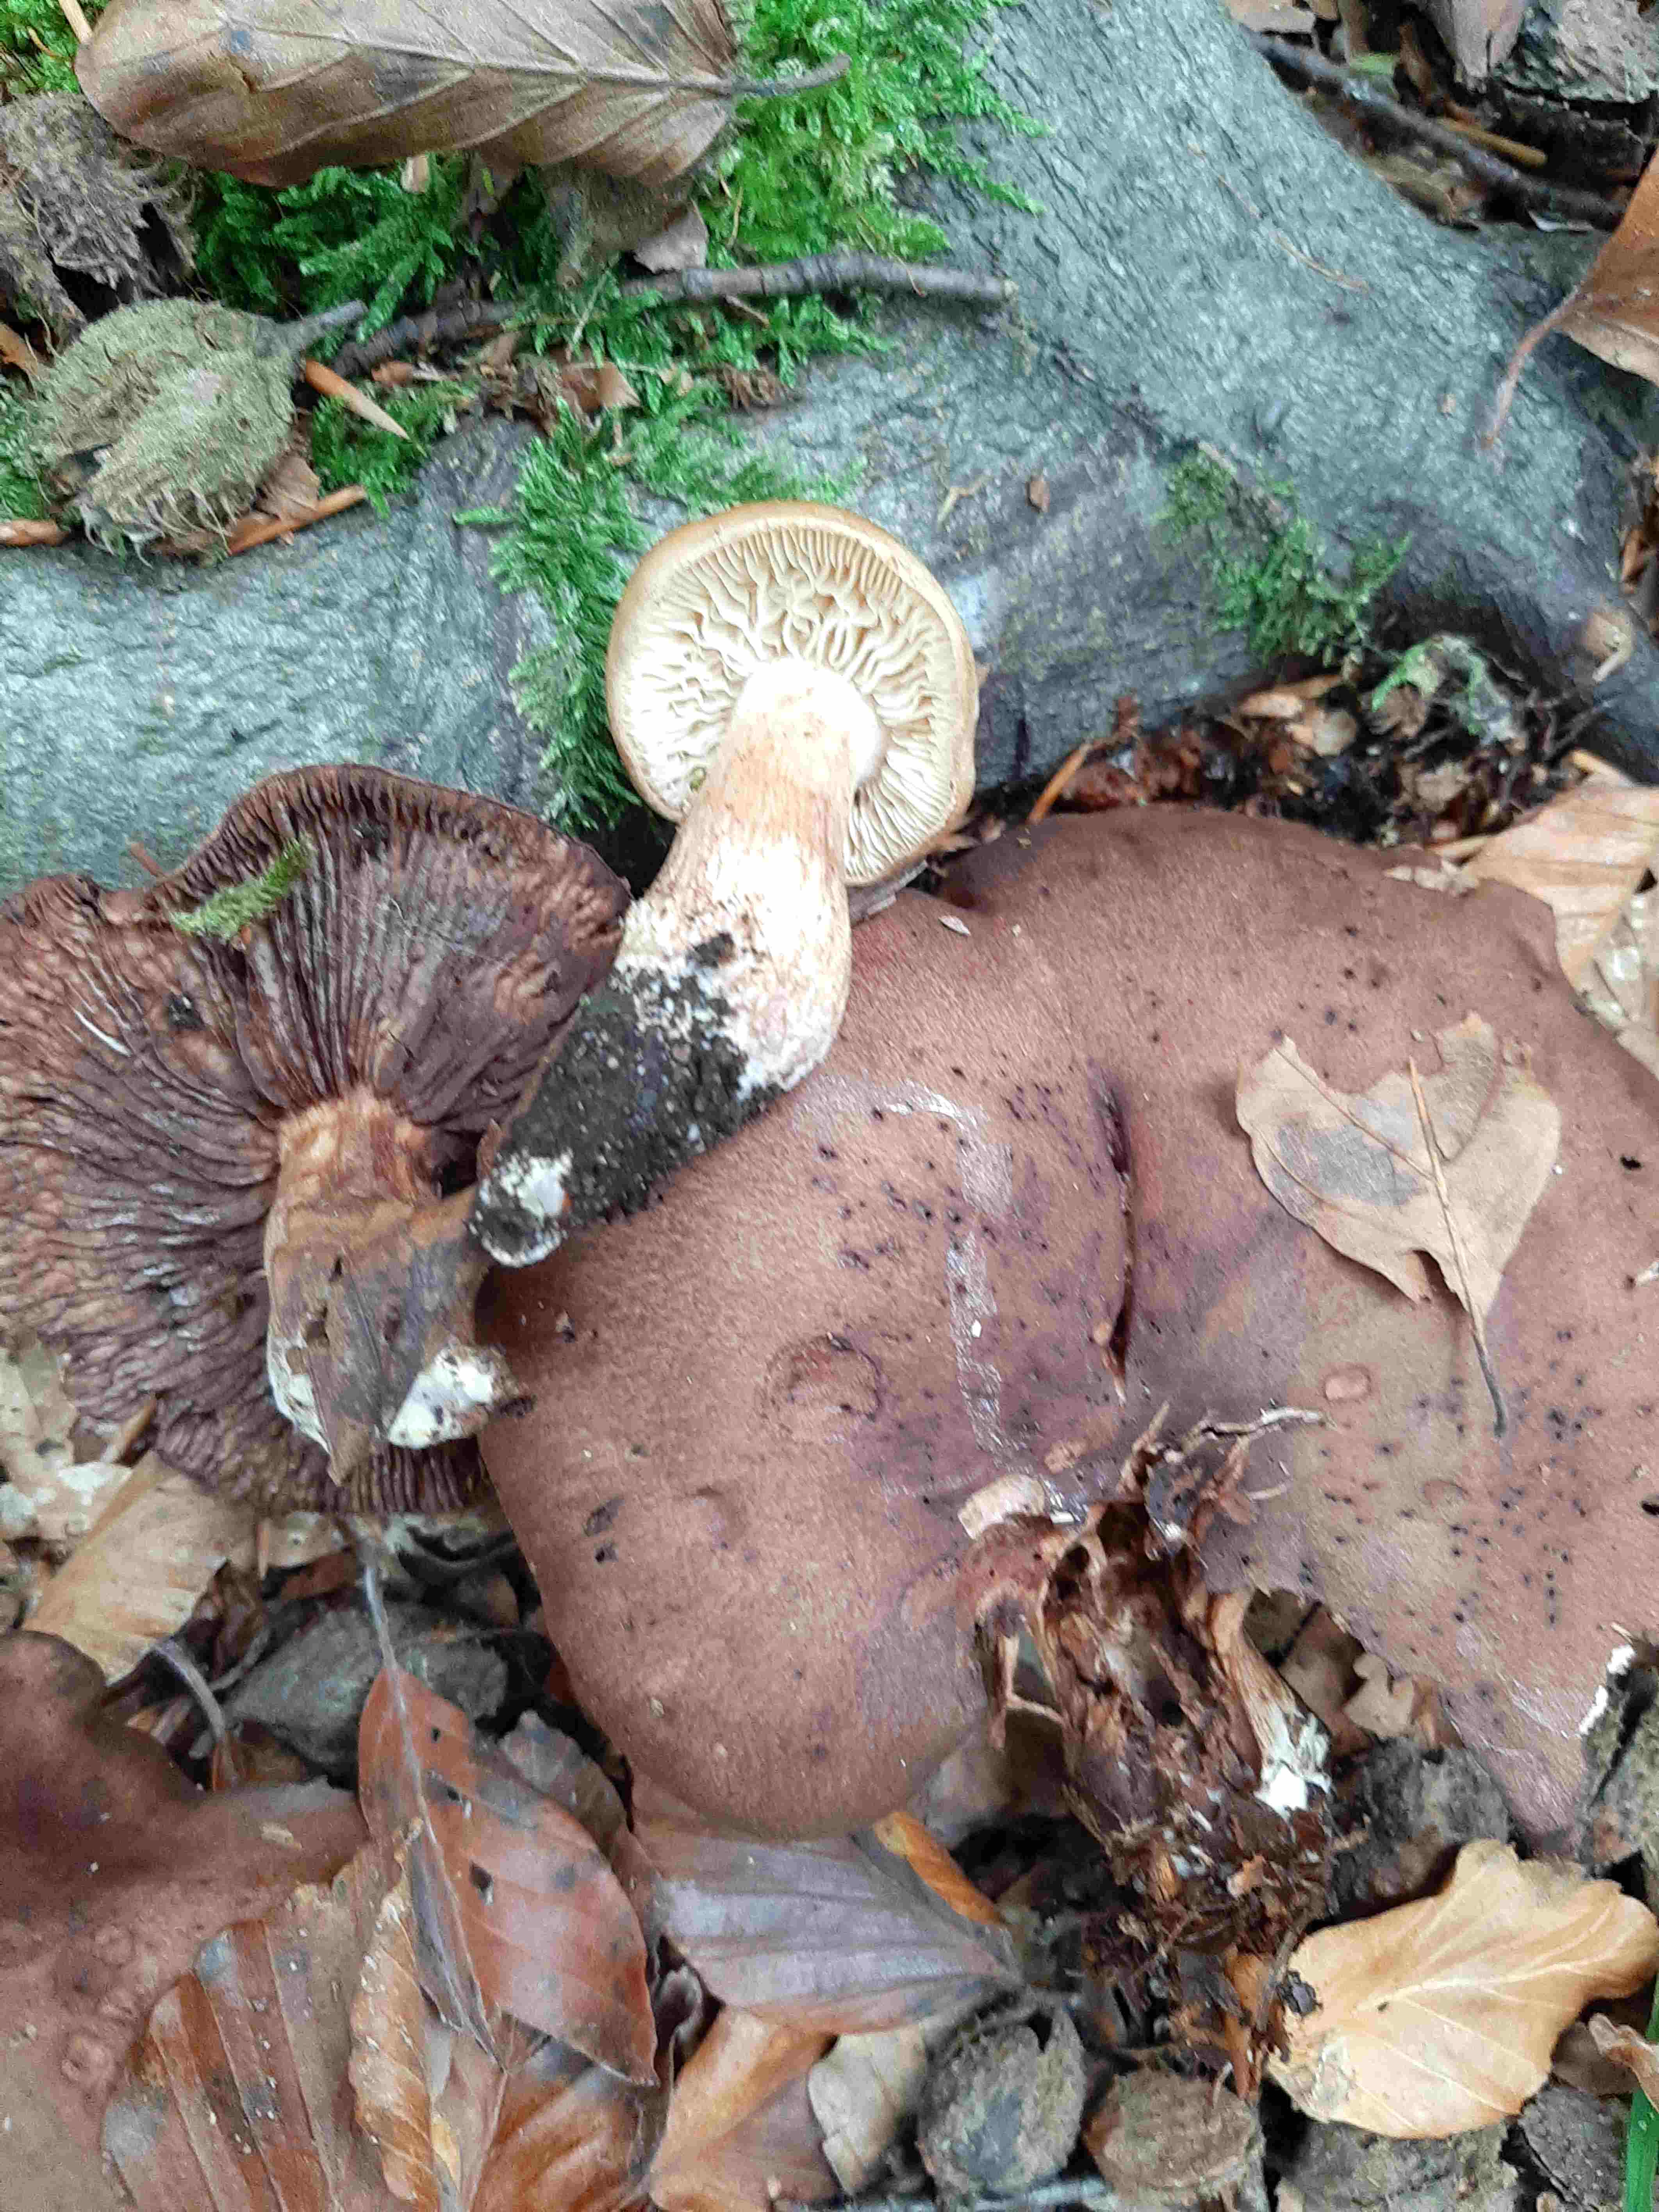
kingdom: Fungi
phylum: Basidiomycota
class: Agaricomycetes
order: Agaricales
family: Tricholomataceae
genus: Tricholoma
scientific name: Tricholoma ustale
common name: sveden ridderhat
